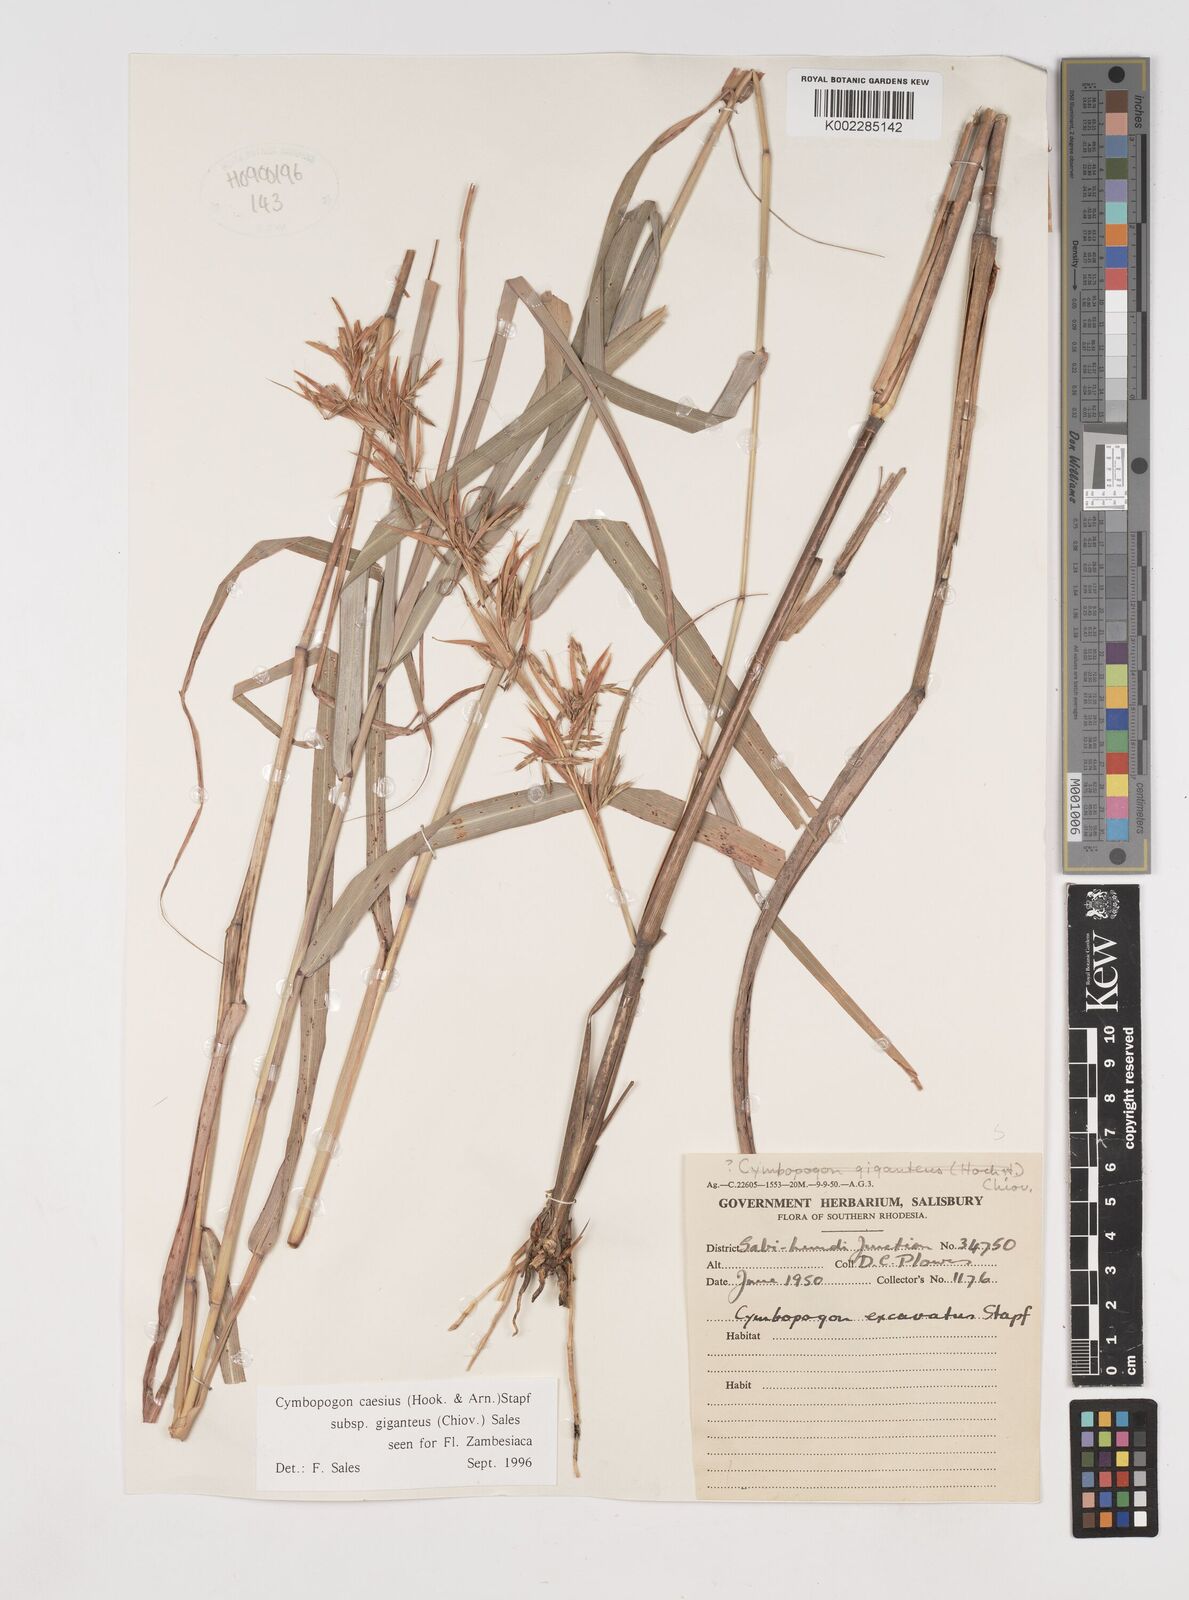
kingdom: Plantae
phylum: Tracheophyta
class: Liliopsida
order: Poales
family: Poaceae
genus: Cymbopogon
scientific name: Cymbopogon giganteus
